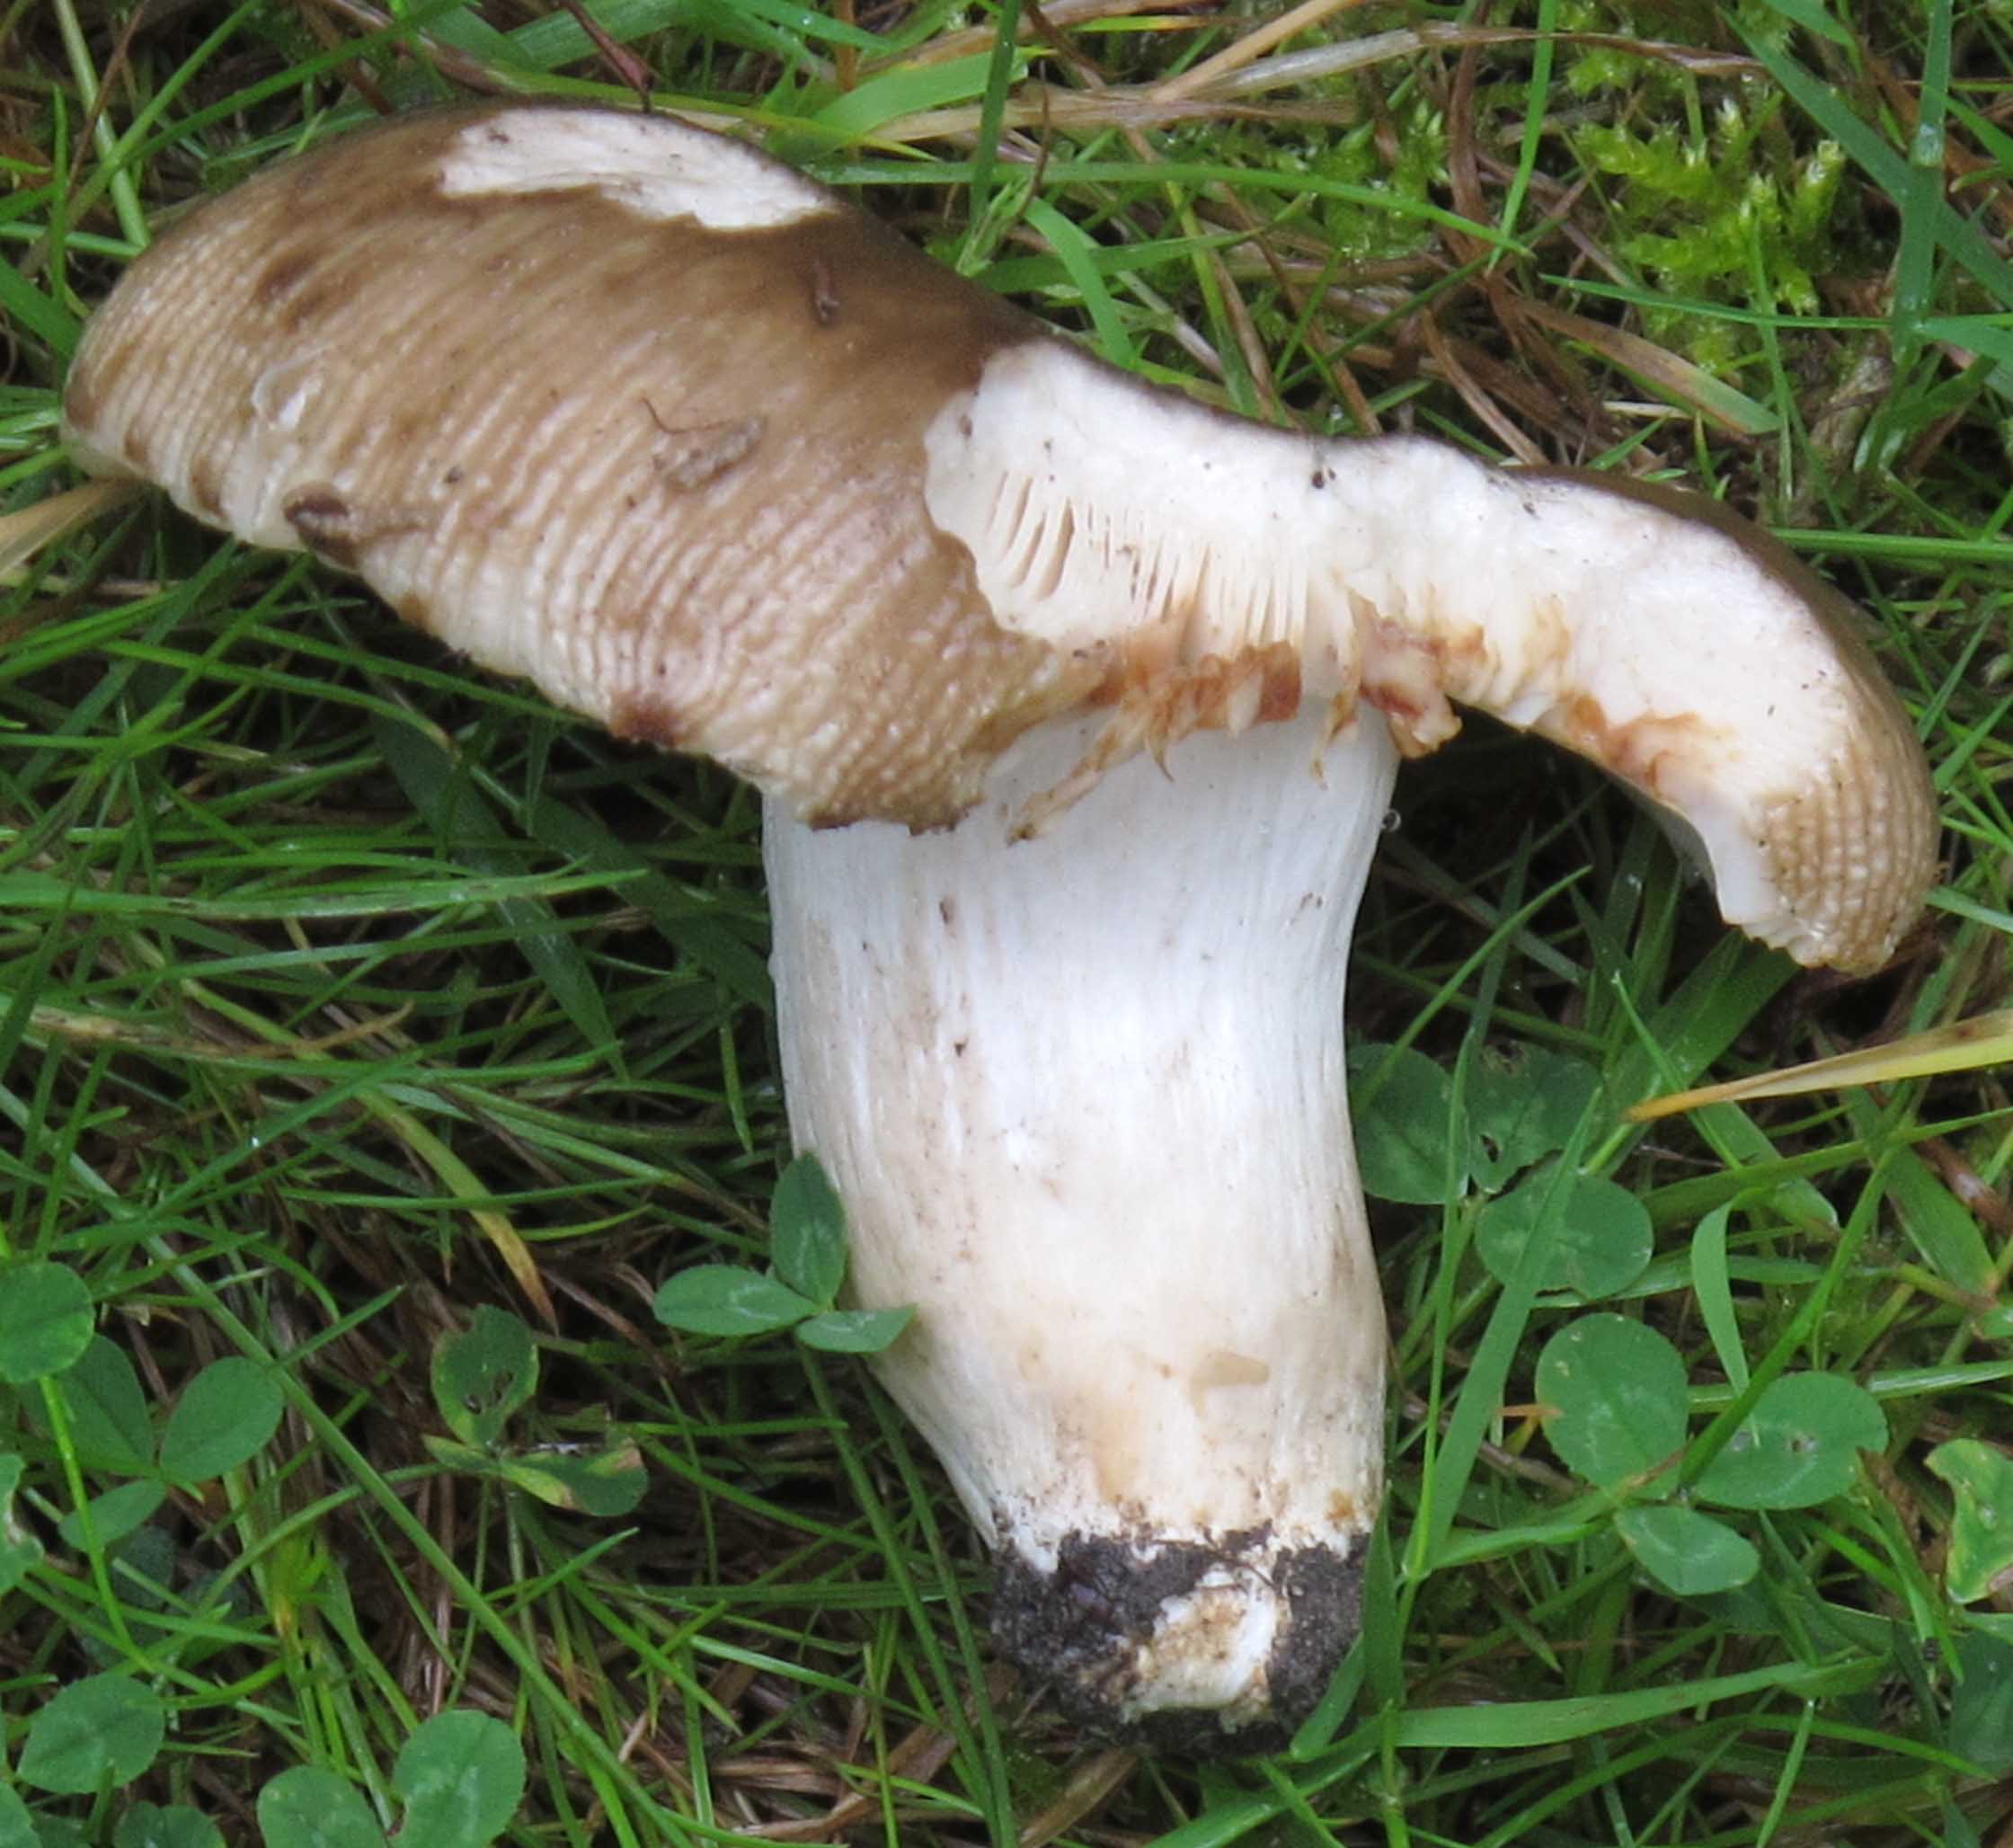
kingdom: Fungi
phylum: Basidiomycota
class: Agaricomycetes
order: Russulales
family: Russulaceae
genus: Russula
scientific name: Russula sororia
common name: brun kam-skørhat
